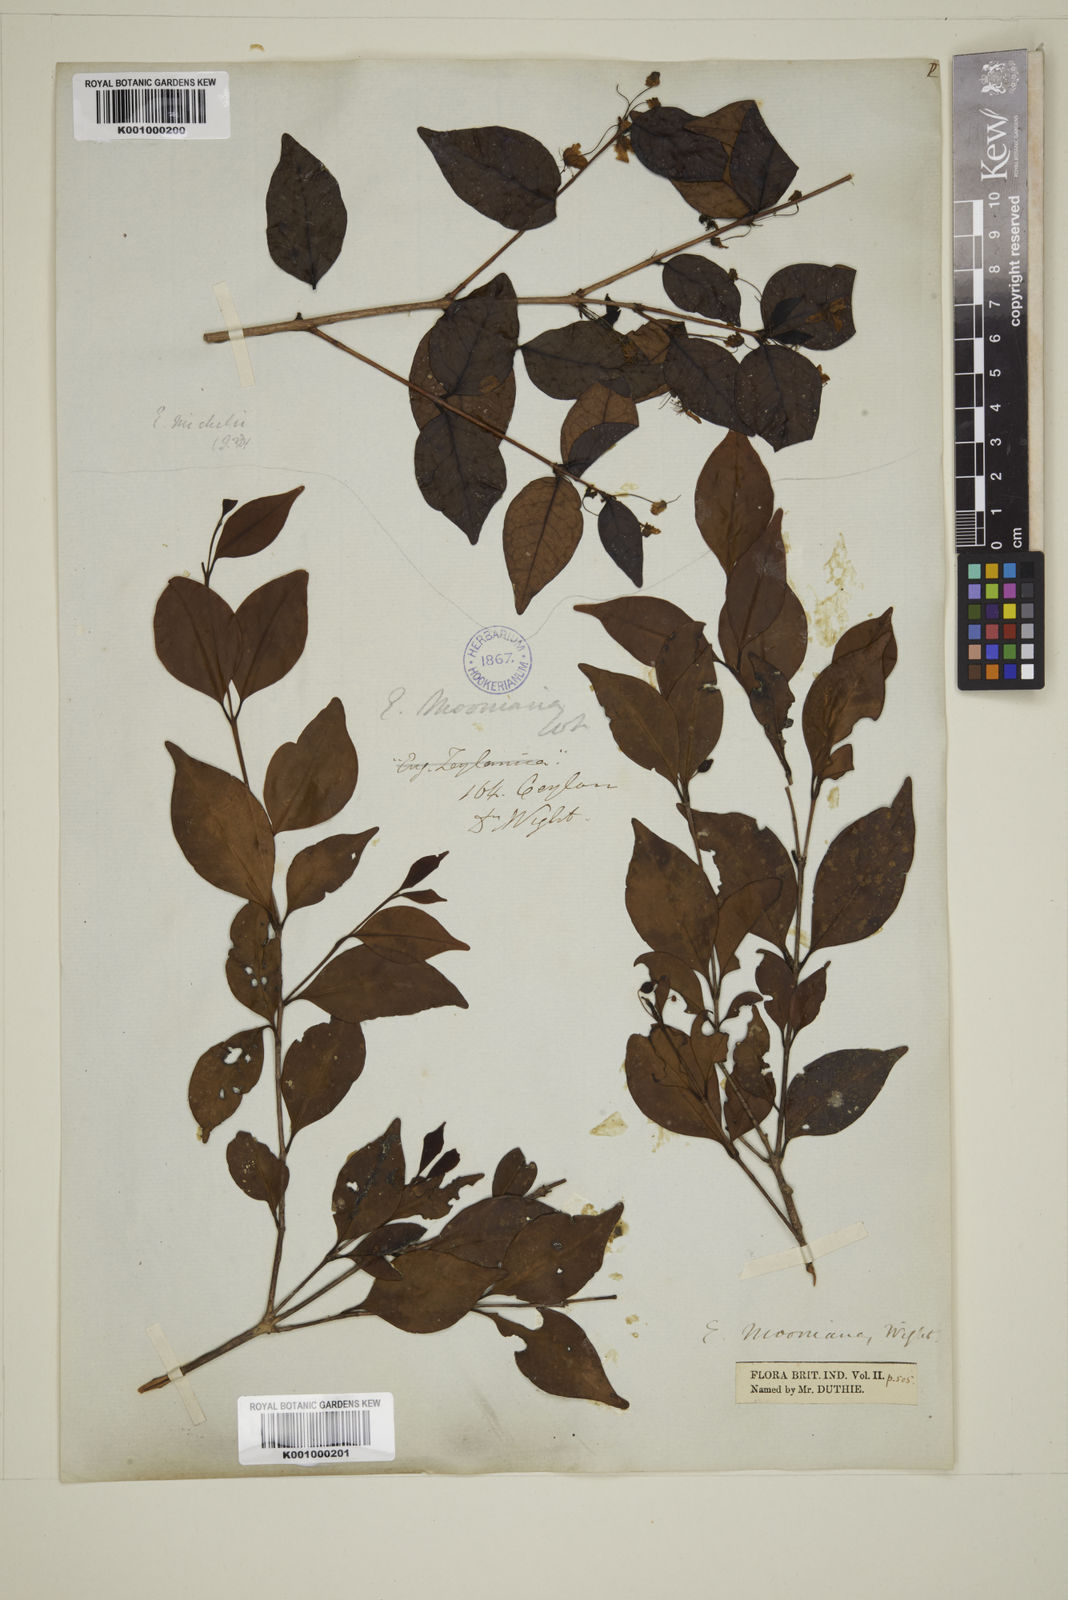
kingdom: Plantae
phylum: Tracheophyta
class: Magnoliopsida
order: Myrtales
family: Myrtaceae
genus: Eugenia
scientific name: Eugenia thwaitesii
